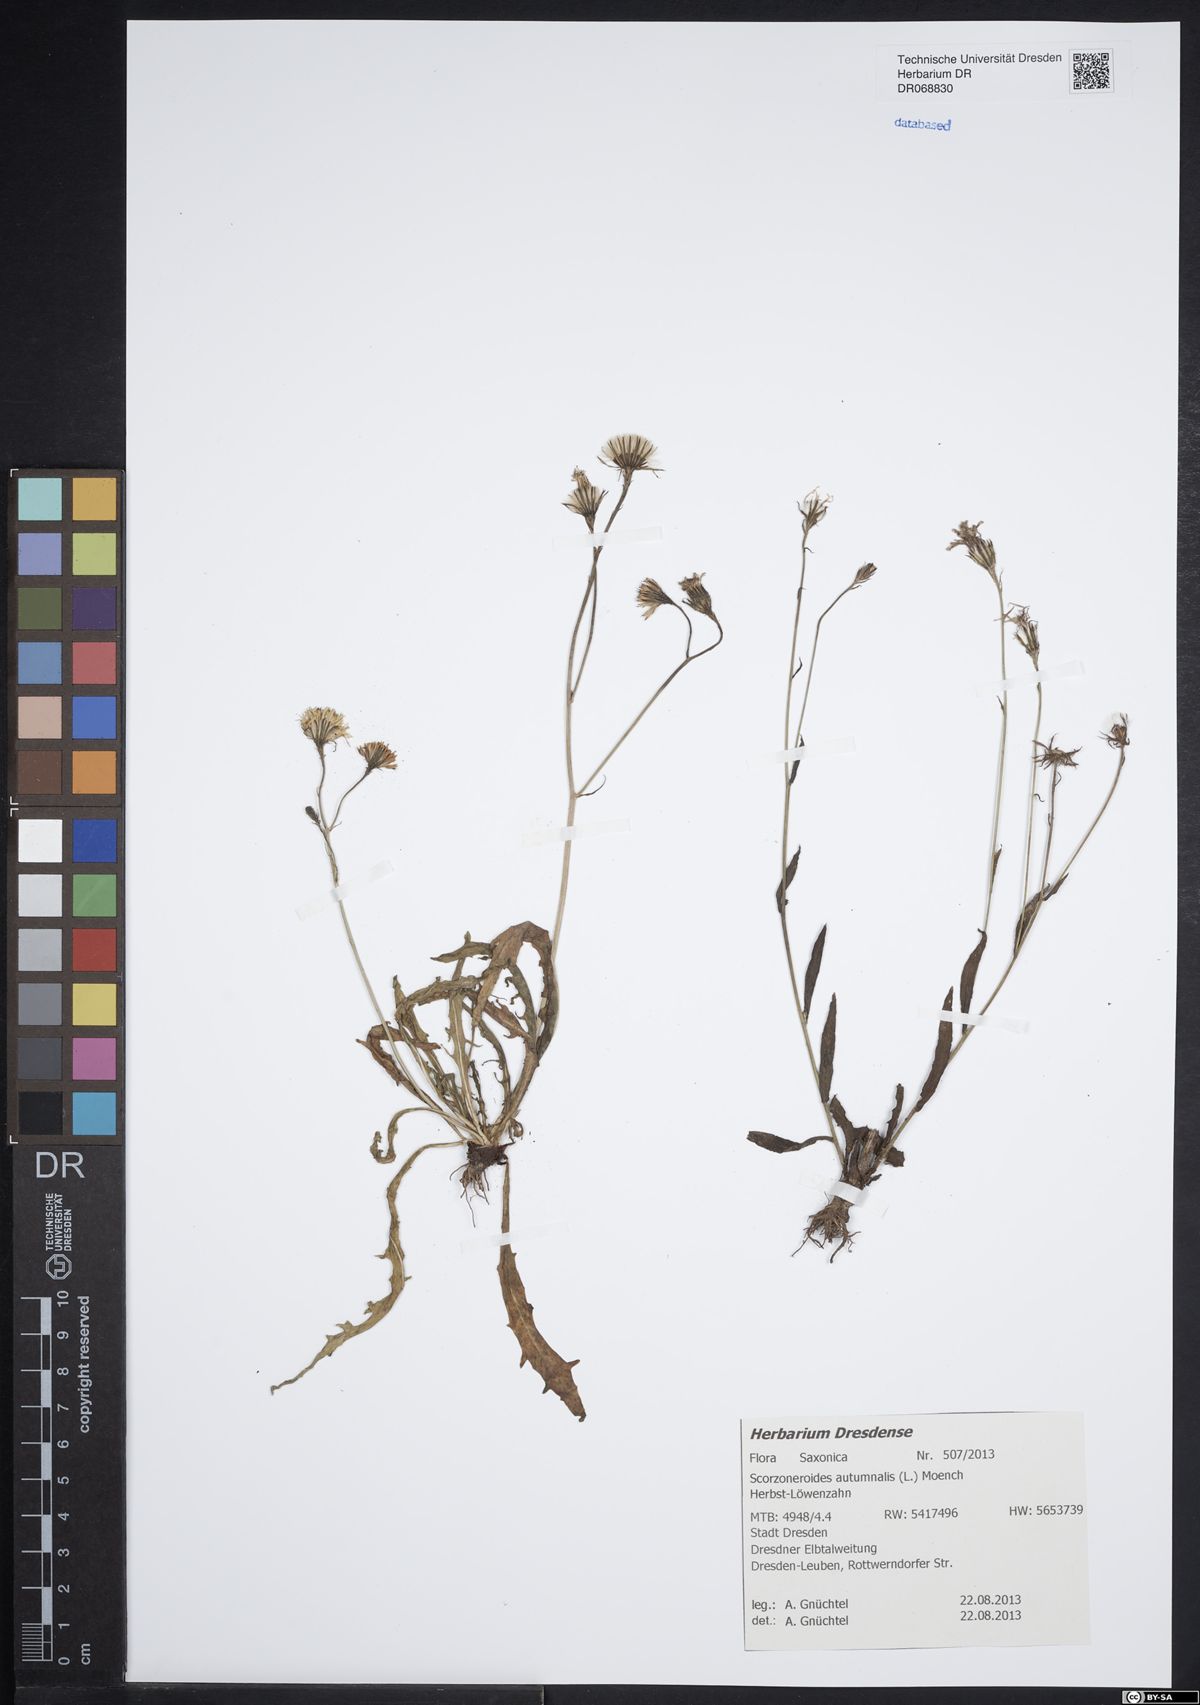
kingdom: Plantae
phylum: Tracheophyta
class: Magnoliopsida
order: Asterales
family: Asteraceae
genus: Scorzoneroides
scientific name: Scorzoneroides autumnalis
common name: Autumn hawkbit
